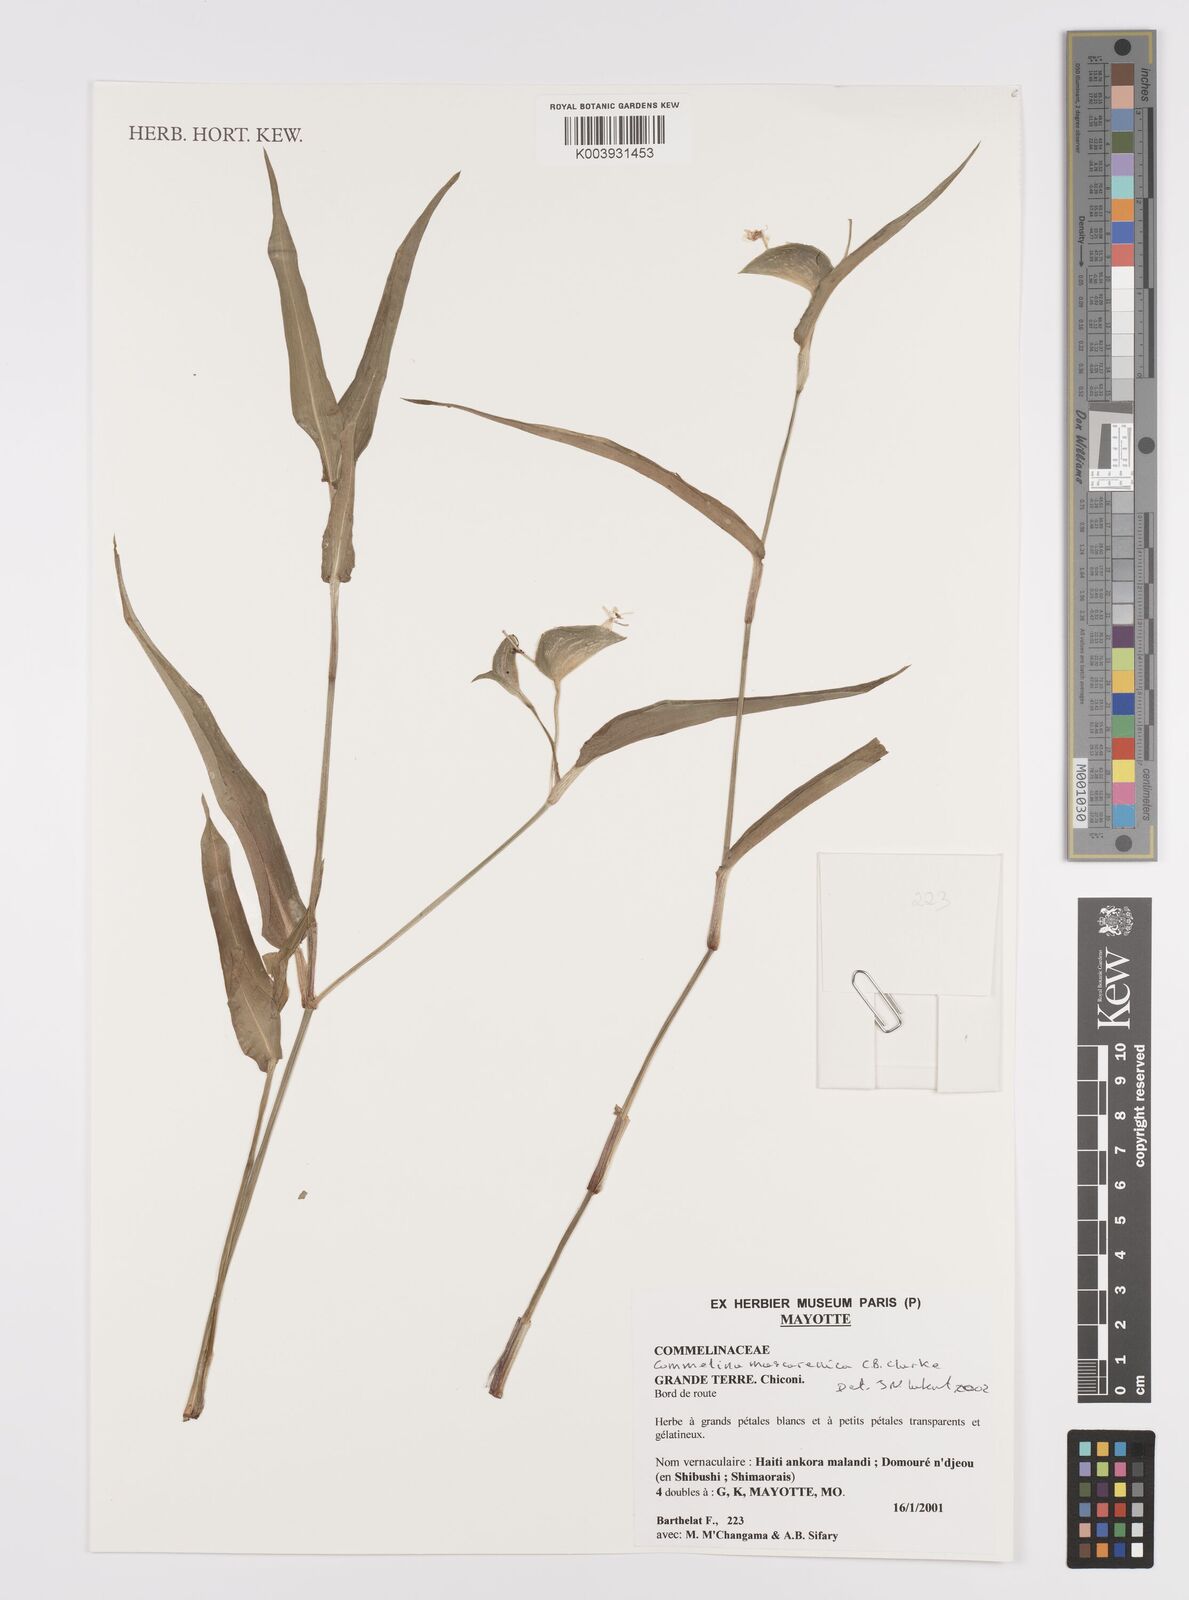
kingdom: Plantae
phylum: Tracheophyta
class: Liliopsida
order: Commelinales
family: Commelinaceae
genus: Commelina
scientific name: Commelina mascarenica
